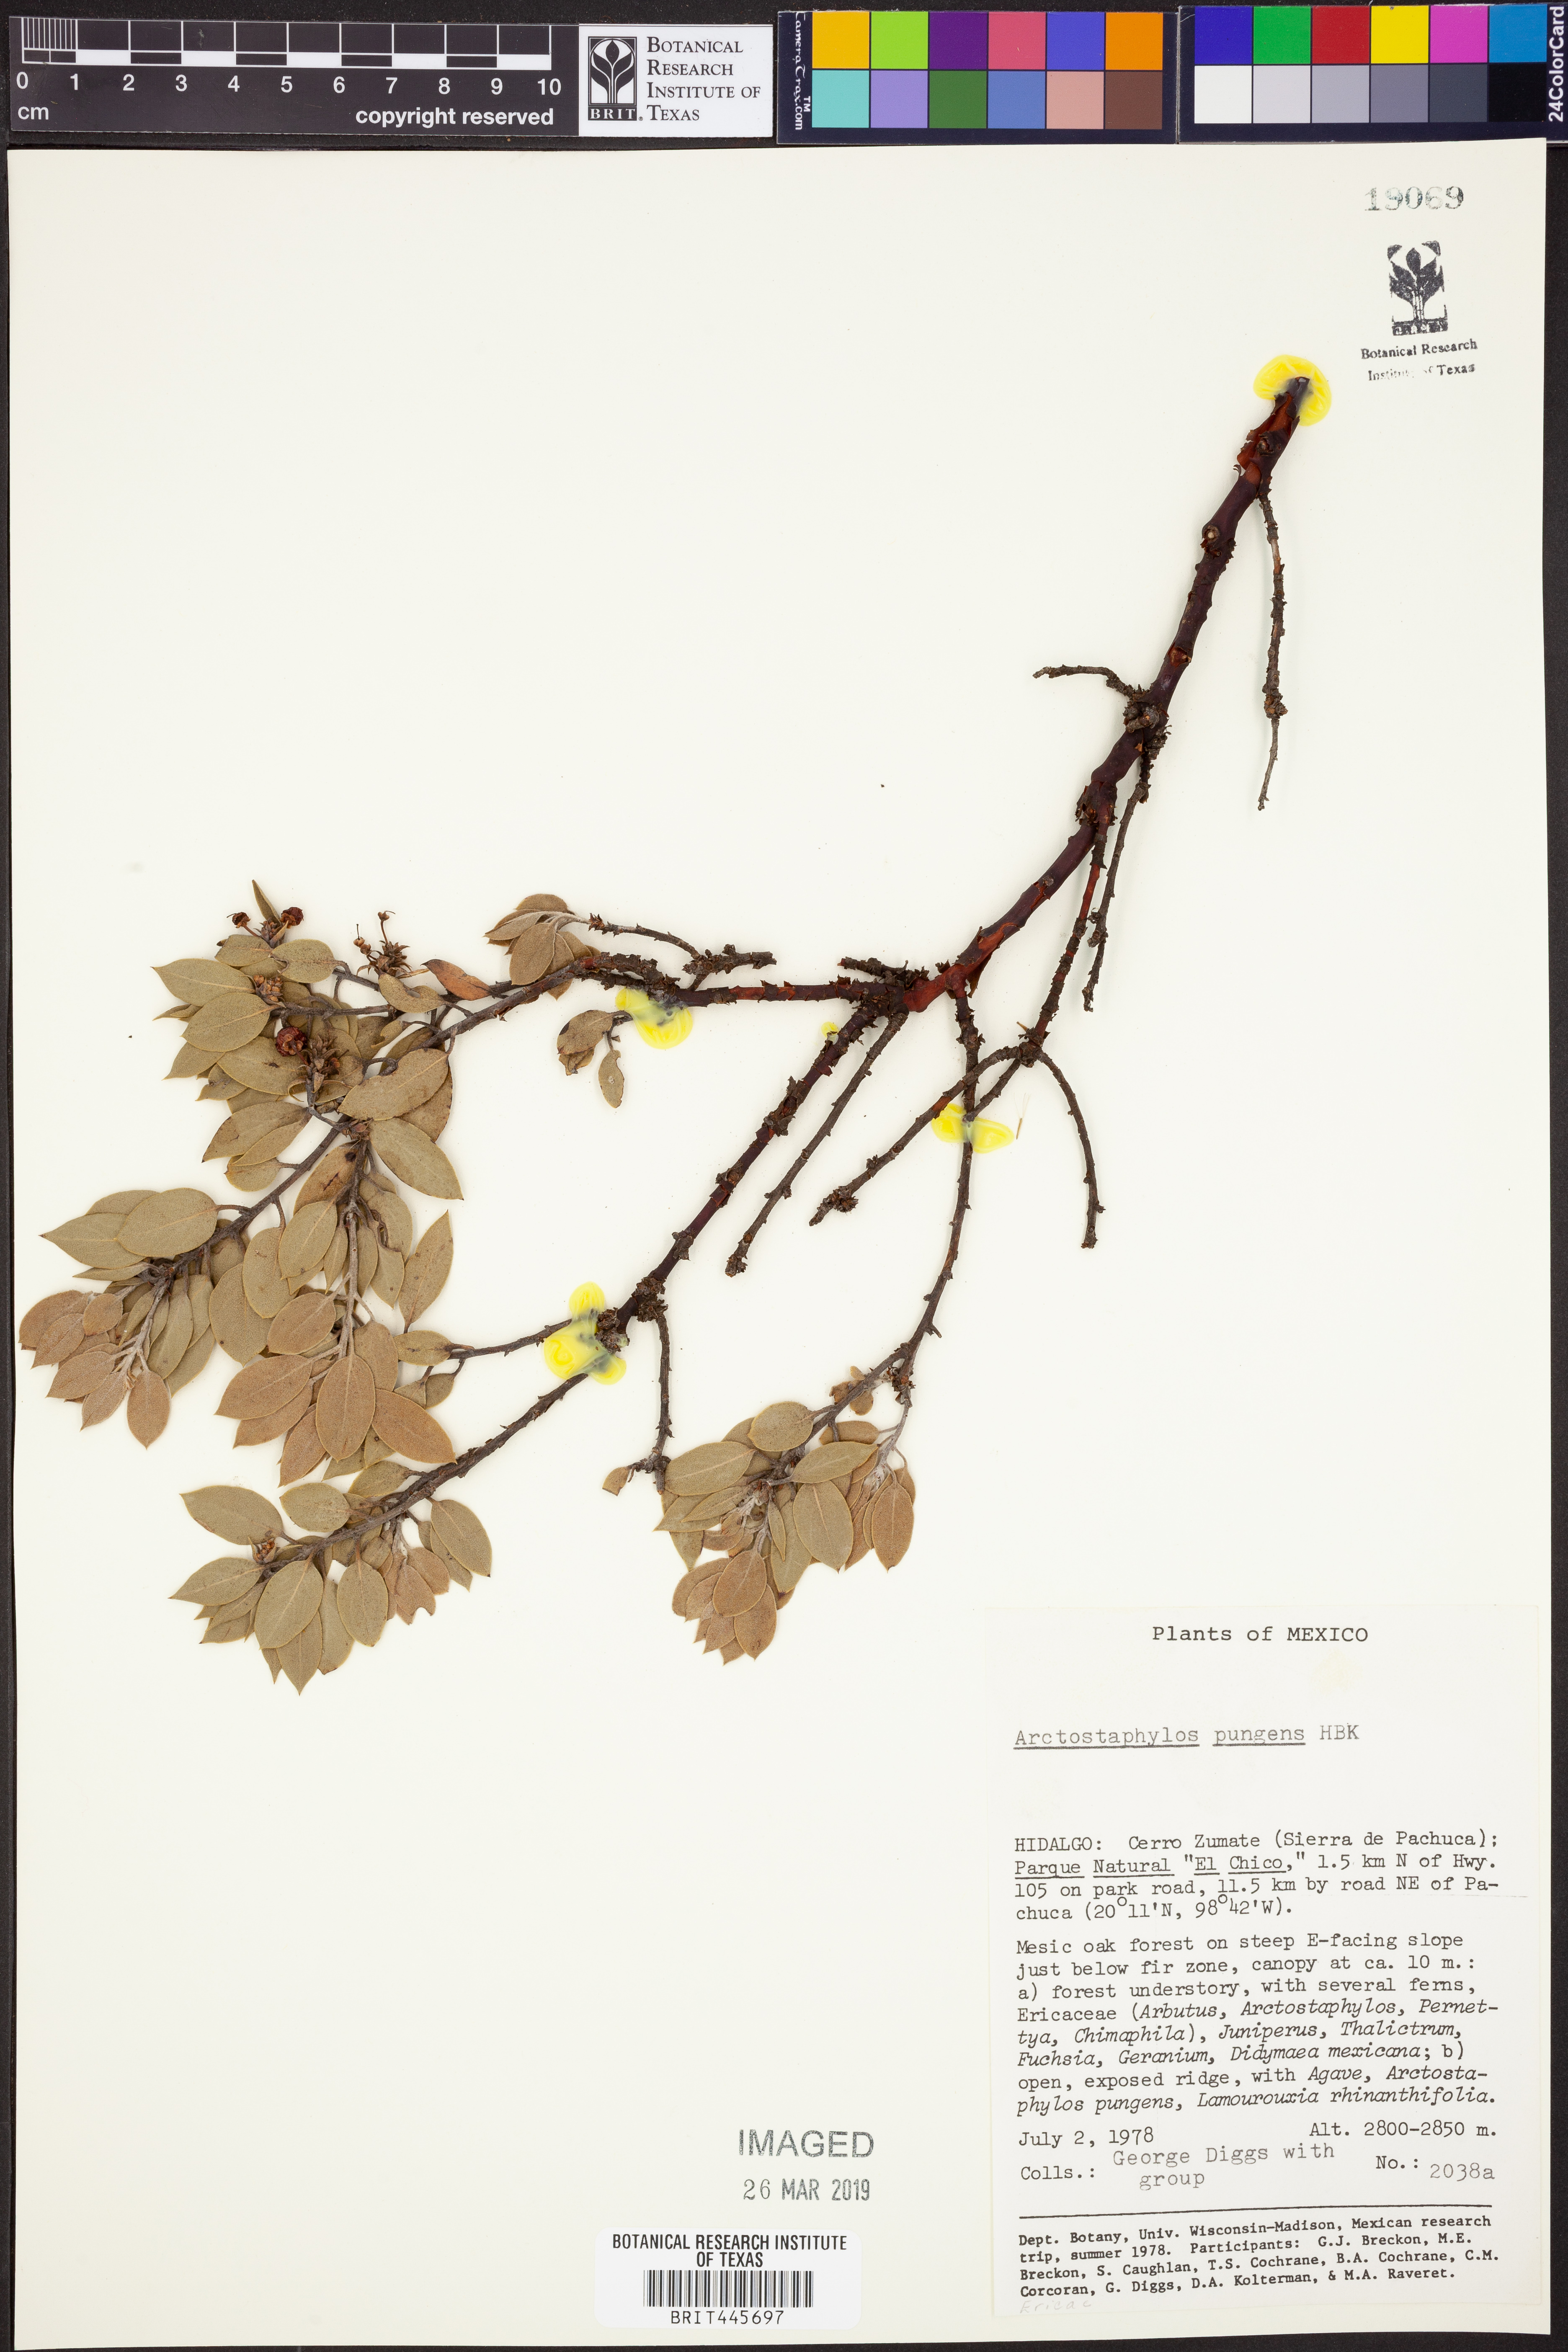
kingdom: Plantae
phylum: Tracheophyta
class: Magnoliopsida
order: Ericales
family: Ericaceae
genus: Arctostaphylos
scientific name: Arctostaphylos pungens
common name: Mexican manzanita
